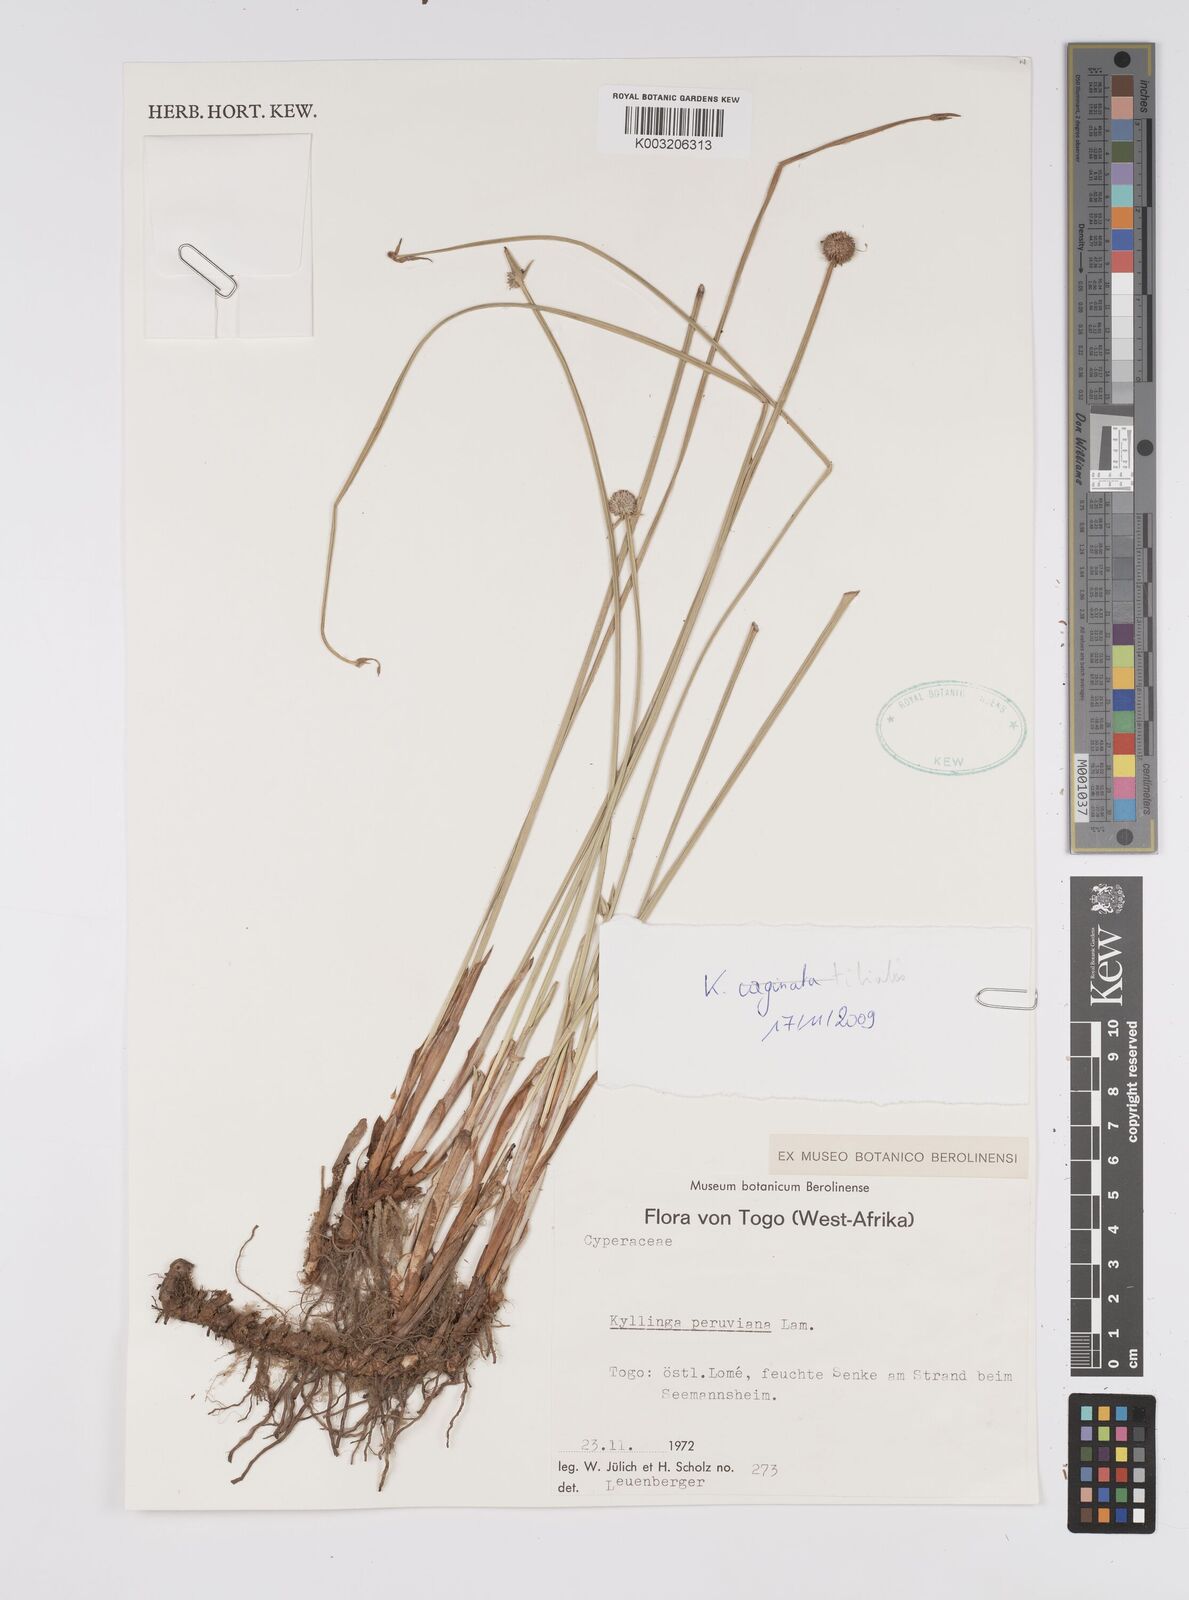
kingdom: Plantae
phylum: Tracheophyta
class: Liliopsida
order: Poales
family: Cyperaceae
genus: Cyperus
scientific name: Cyperus obtusatus
